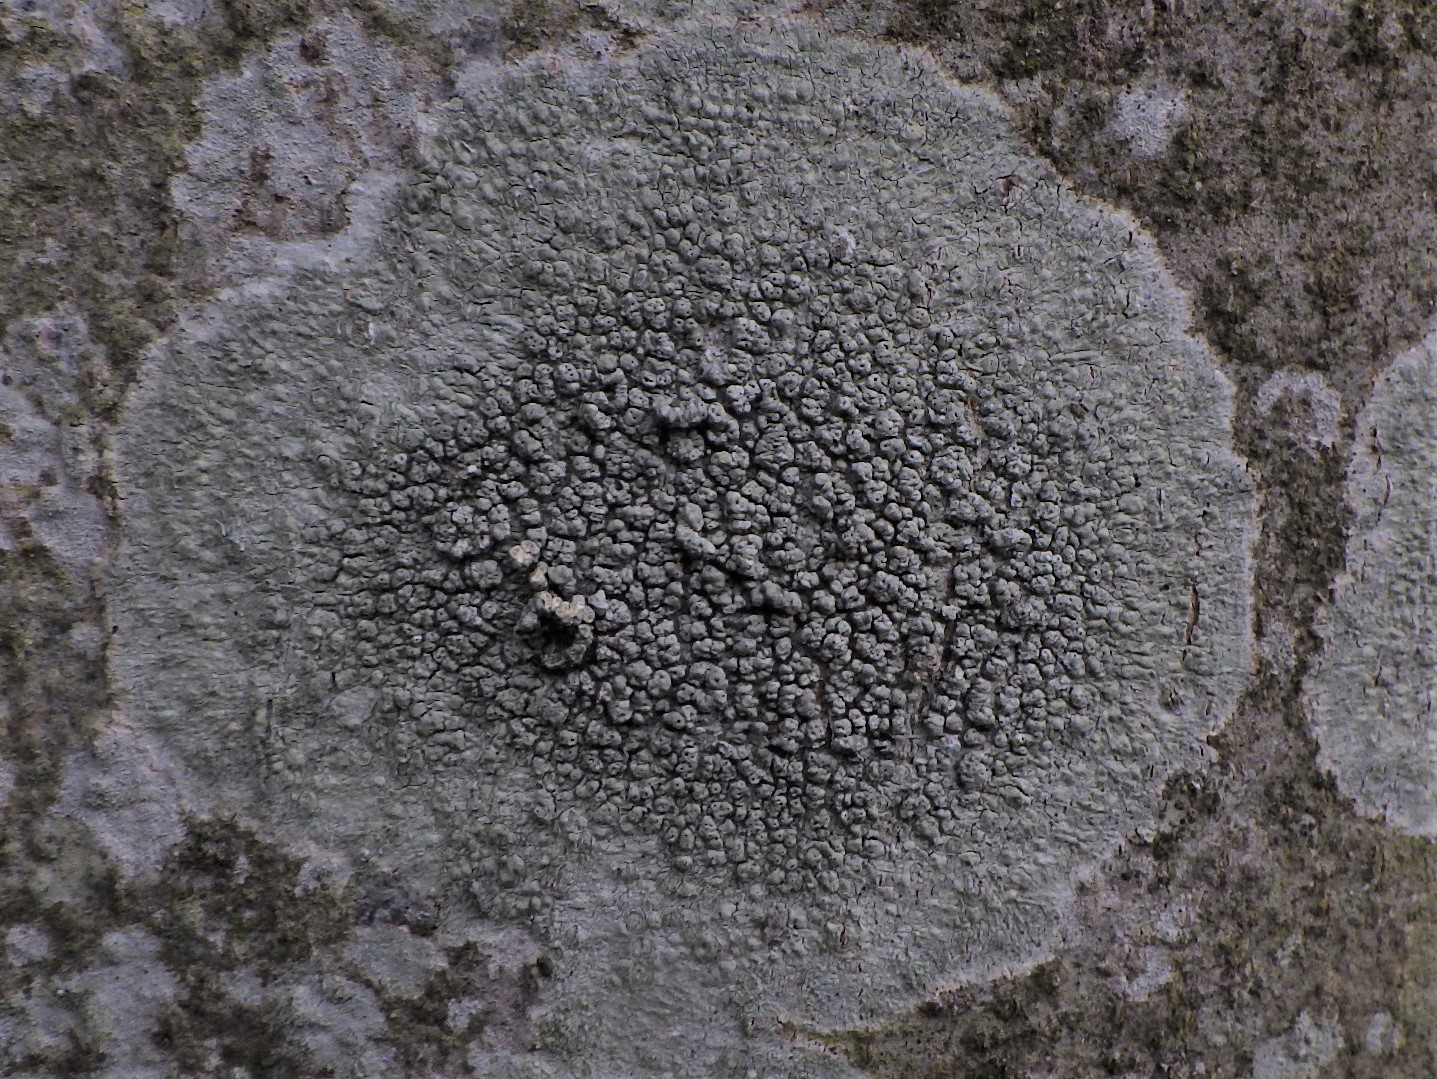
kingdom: Fungi
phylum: Ascomycota
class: Lecanoromycetes
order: Pertusariales
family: Pertusariaceae
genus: Pertusaria
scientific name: Pertusaria pertusa
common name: almindelig prikvortelav
